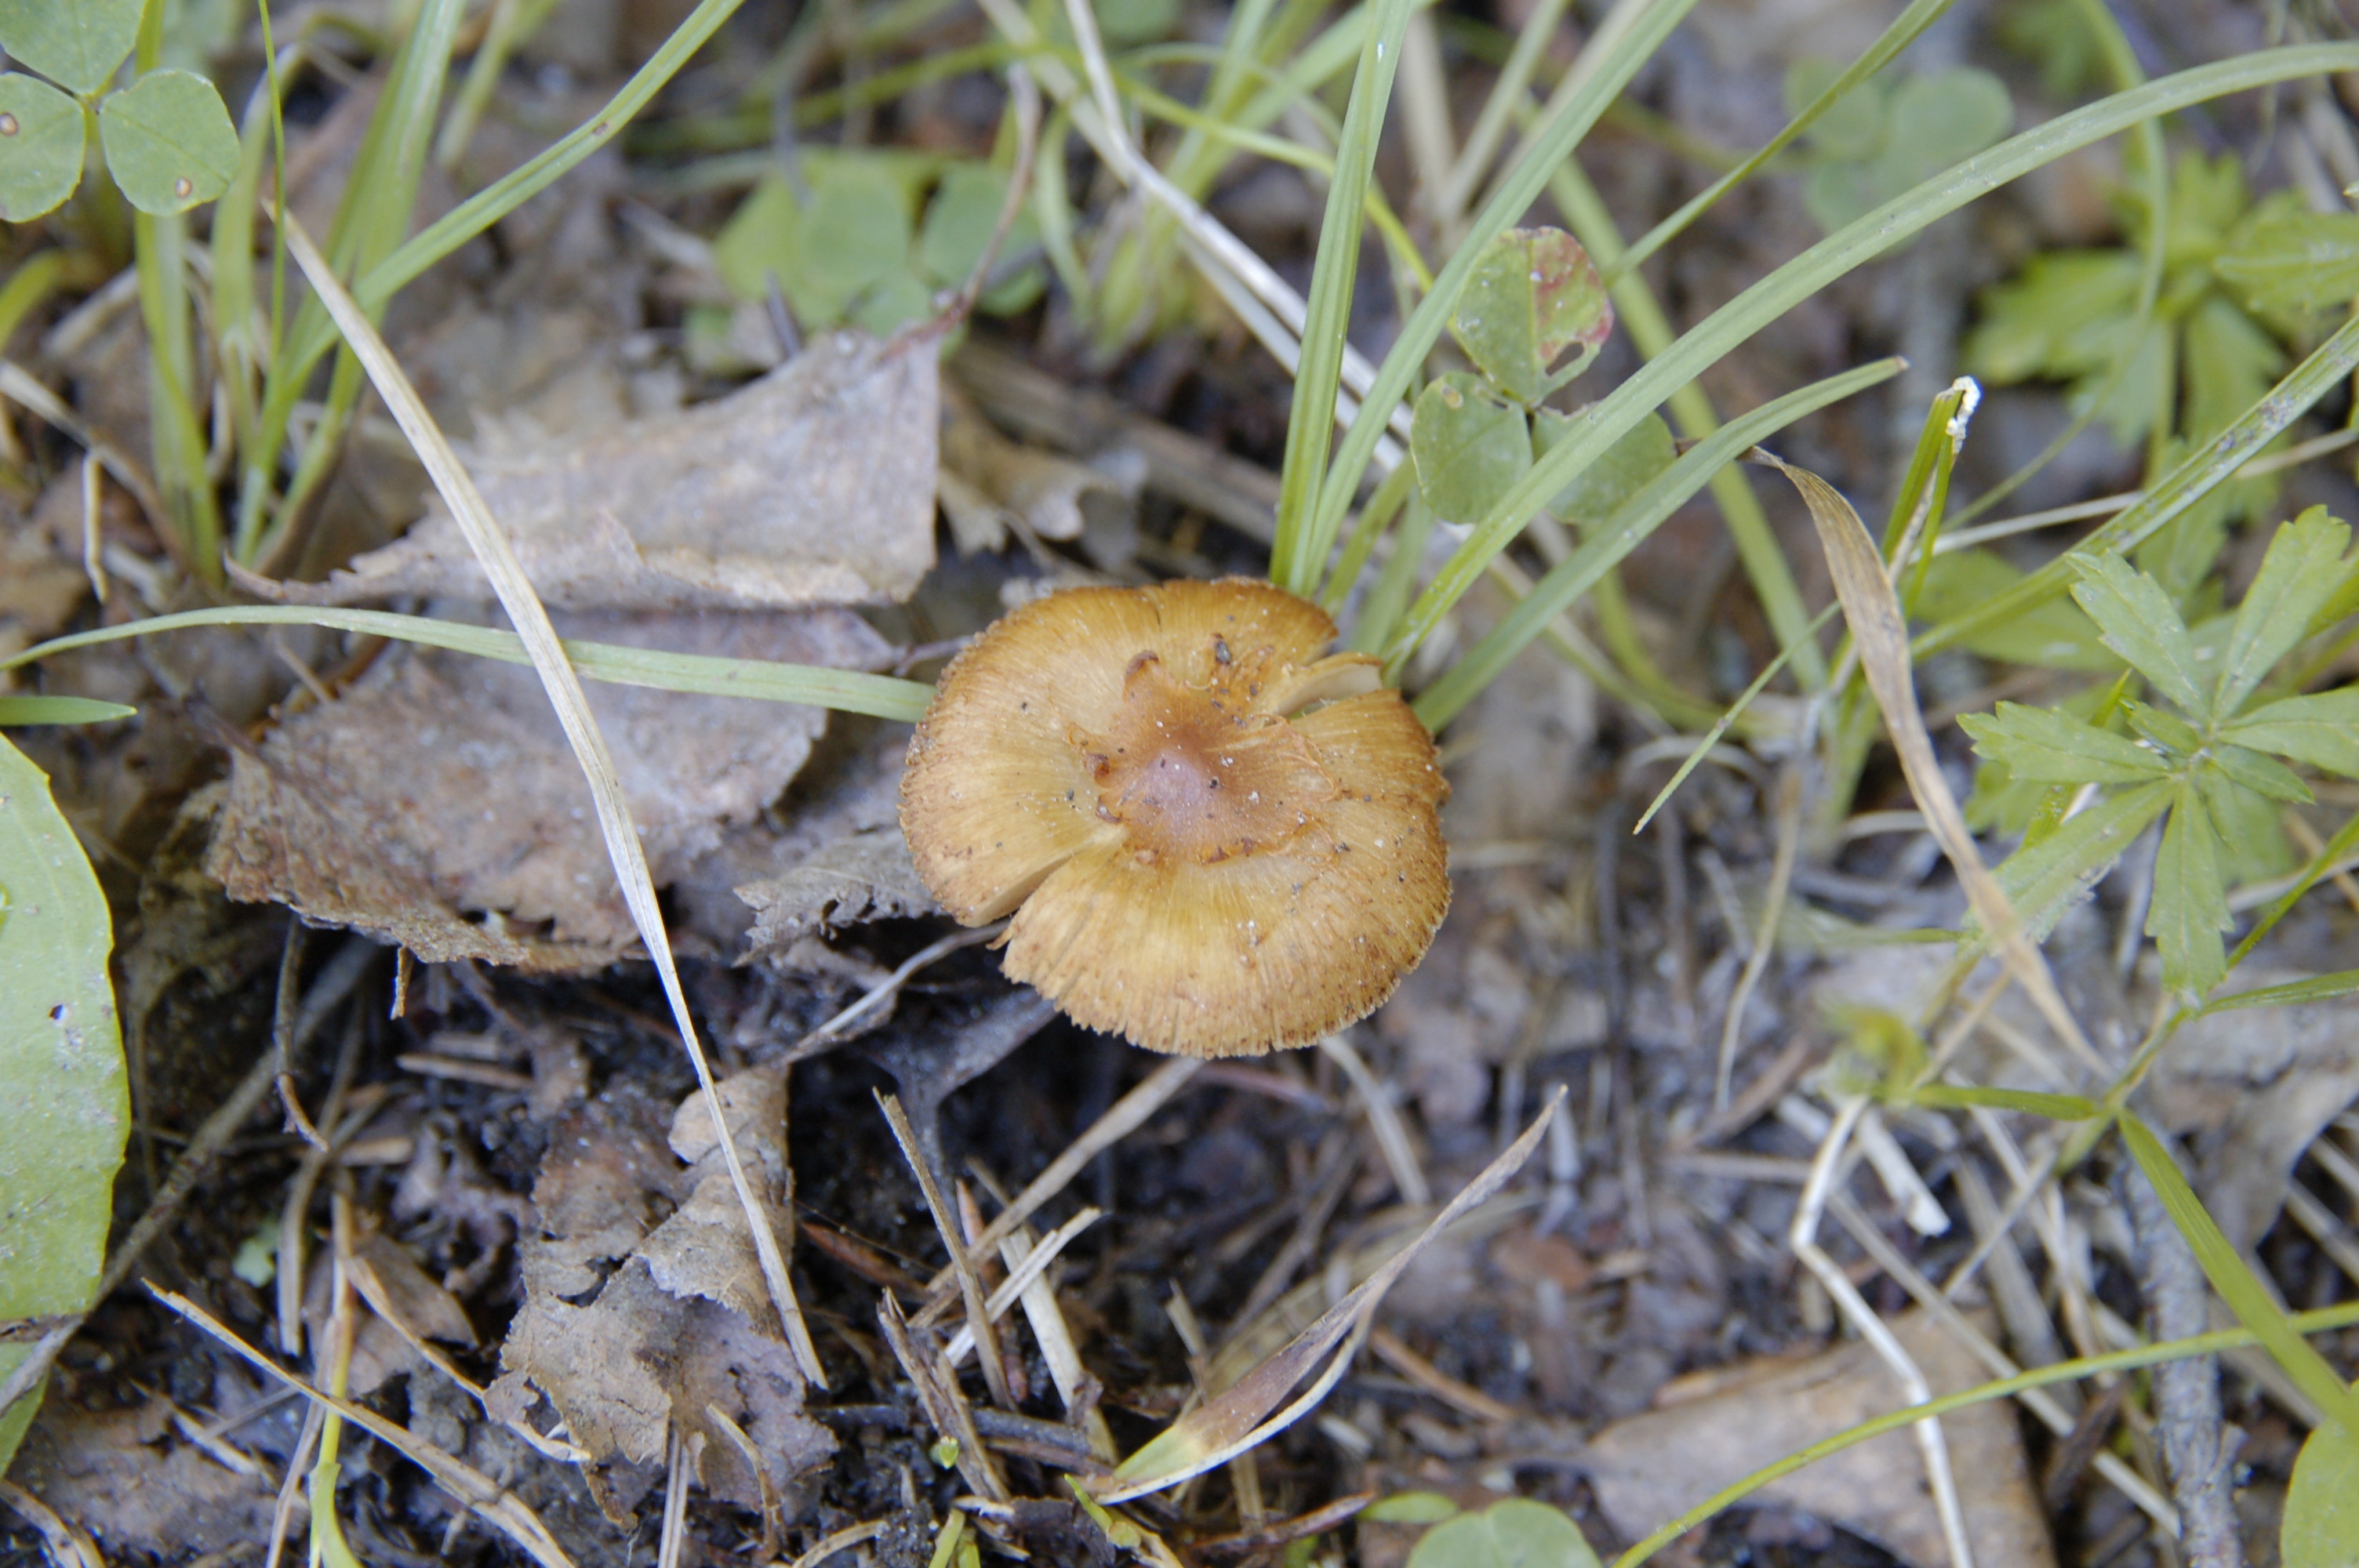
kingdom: Fungi
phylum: Basidiomycota
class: Agaricomycetes
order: Agaricales
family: Inocybaceae
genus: Inocybe
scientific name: Inocybe humilis
